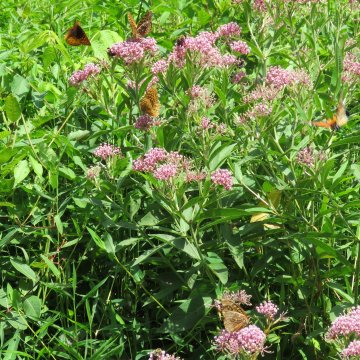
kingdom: Animalia
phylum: Arthropoda
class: Insecta
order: Lepidoptera
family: Nymphalidae
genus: Speyeria
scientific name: Speyeria cybele
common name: Great Spangled Fritillary
